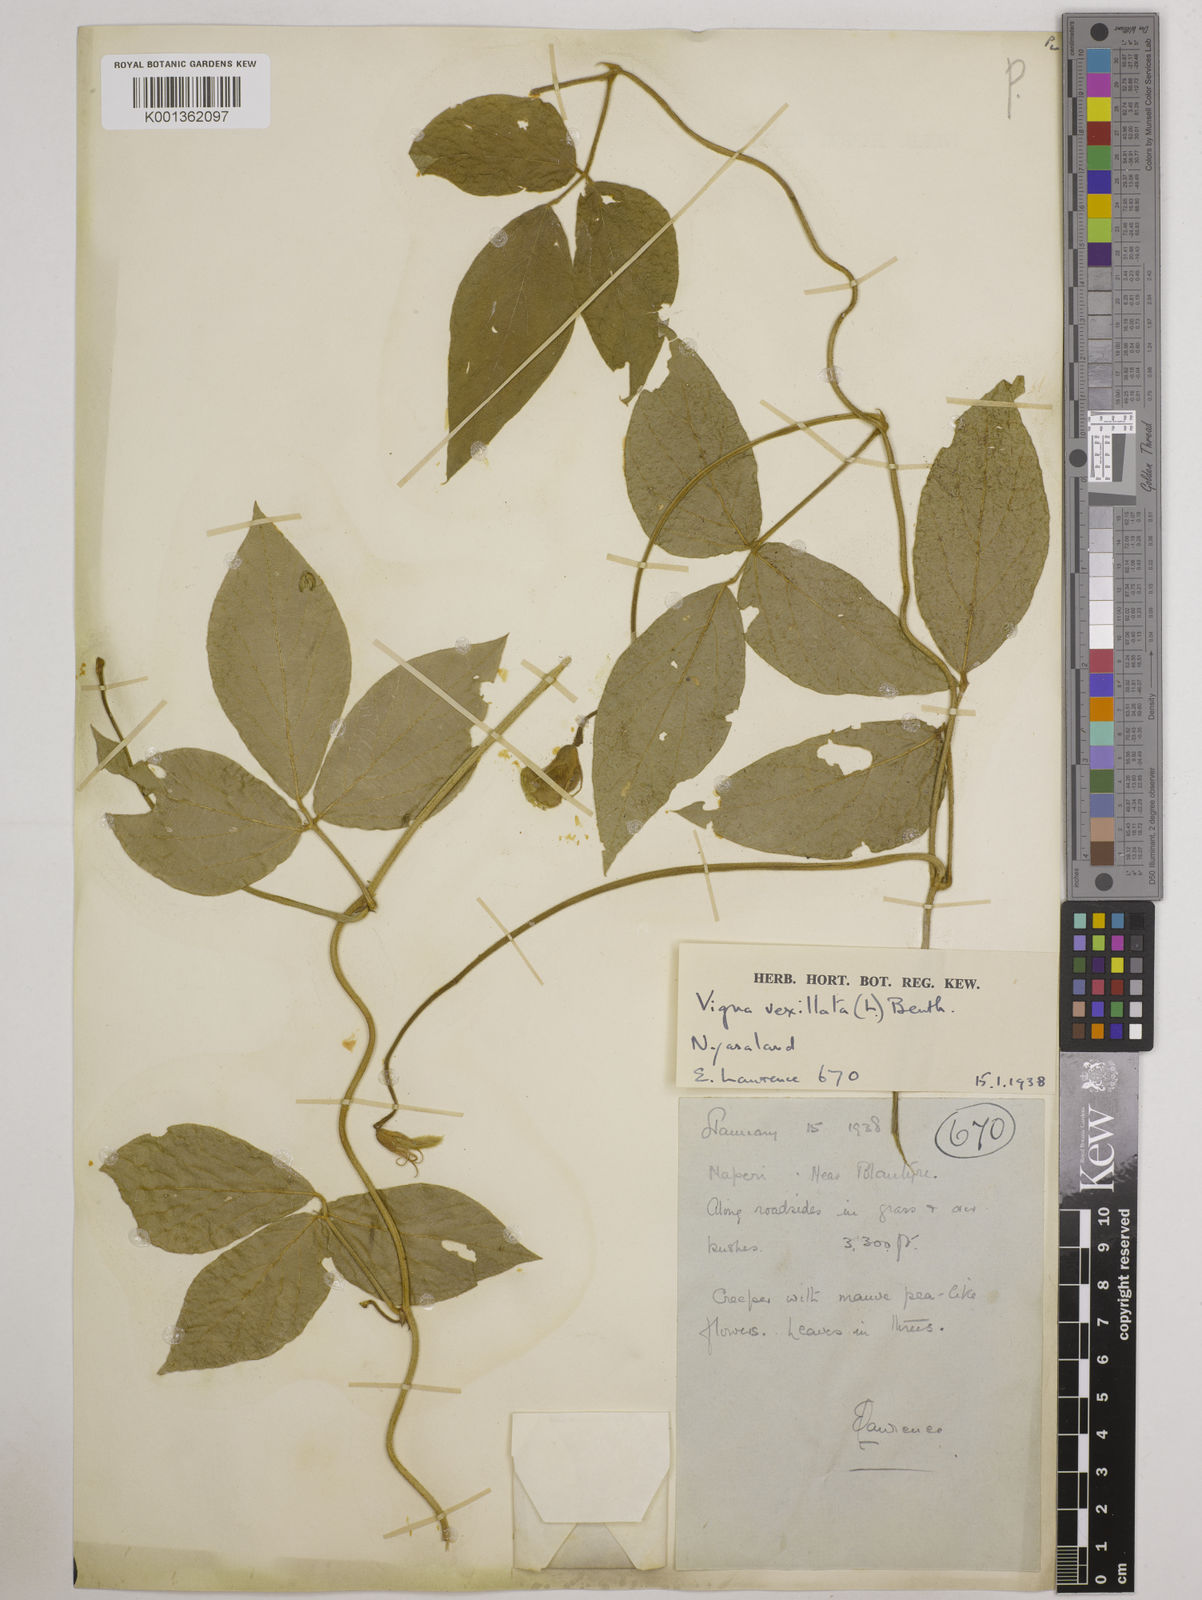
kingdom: Plantae
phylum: Tracheophyta
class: Magnoliopsida
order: Fabales
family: Fabaceae
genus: Vigna
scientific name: Vigna vexillata
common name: Zombi pea
